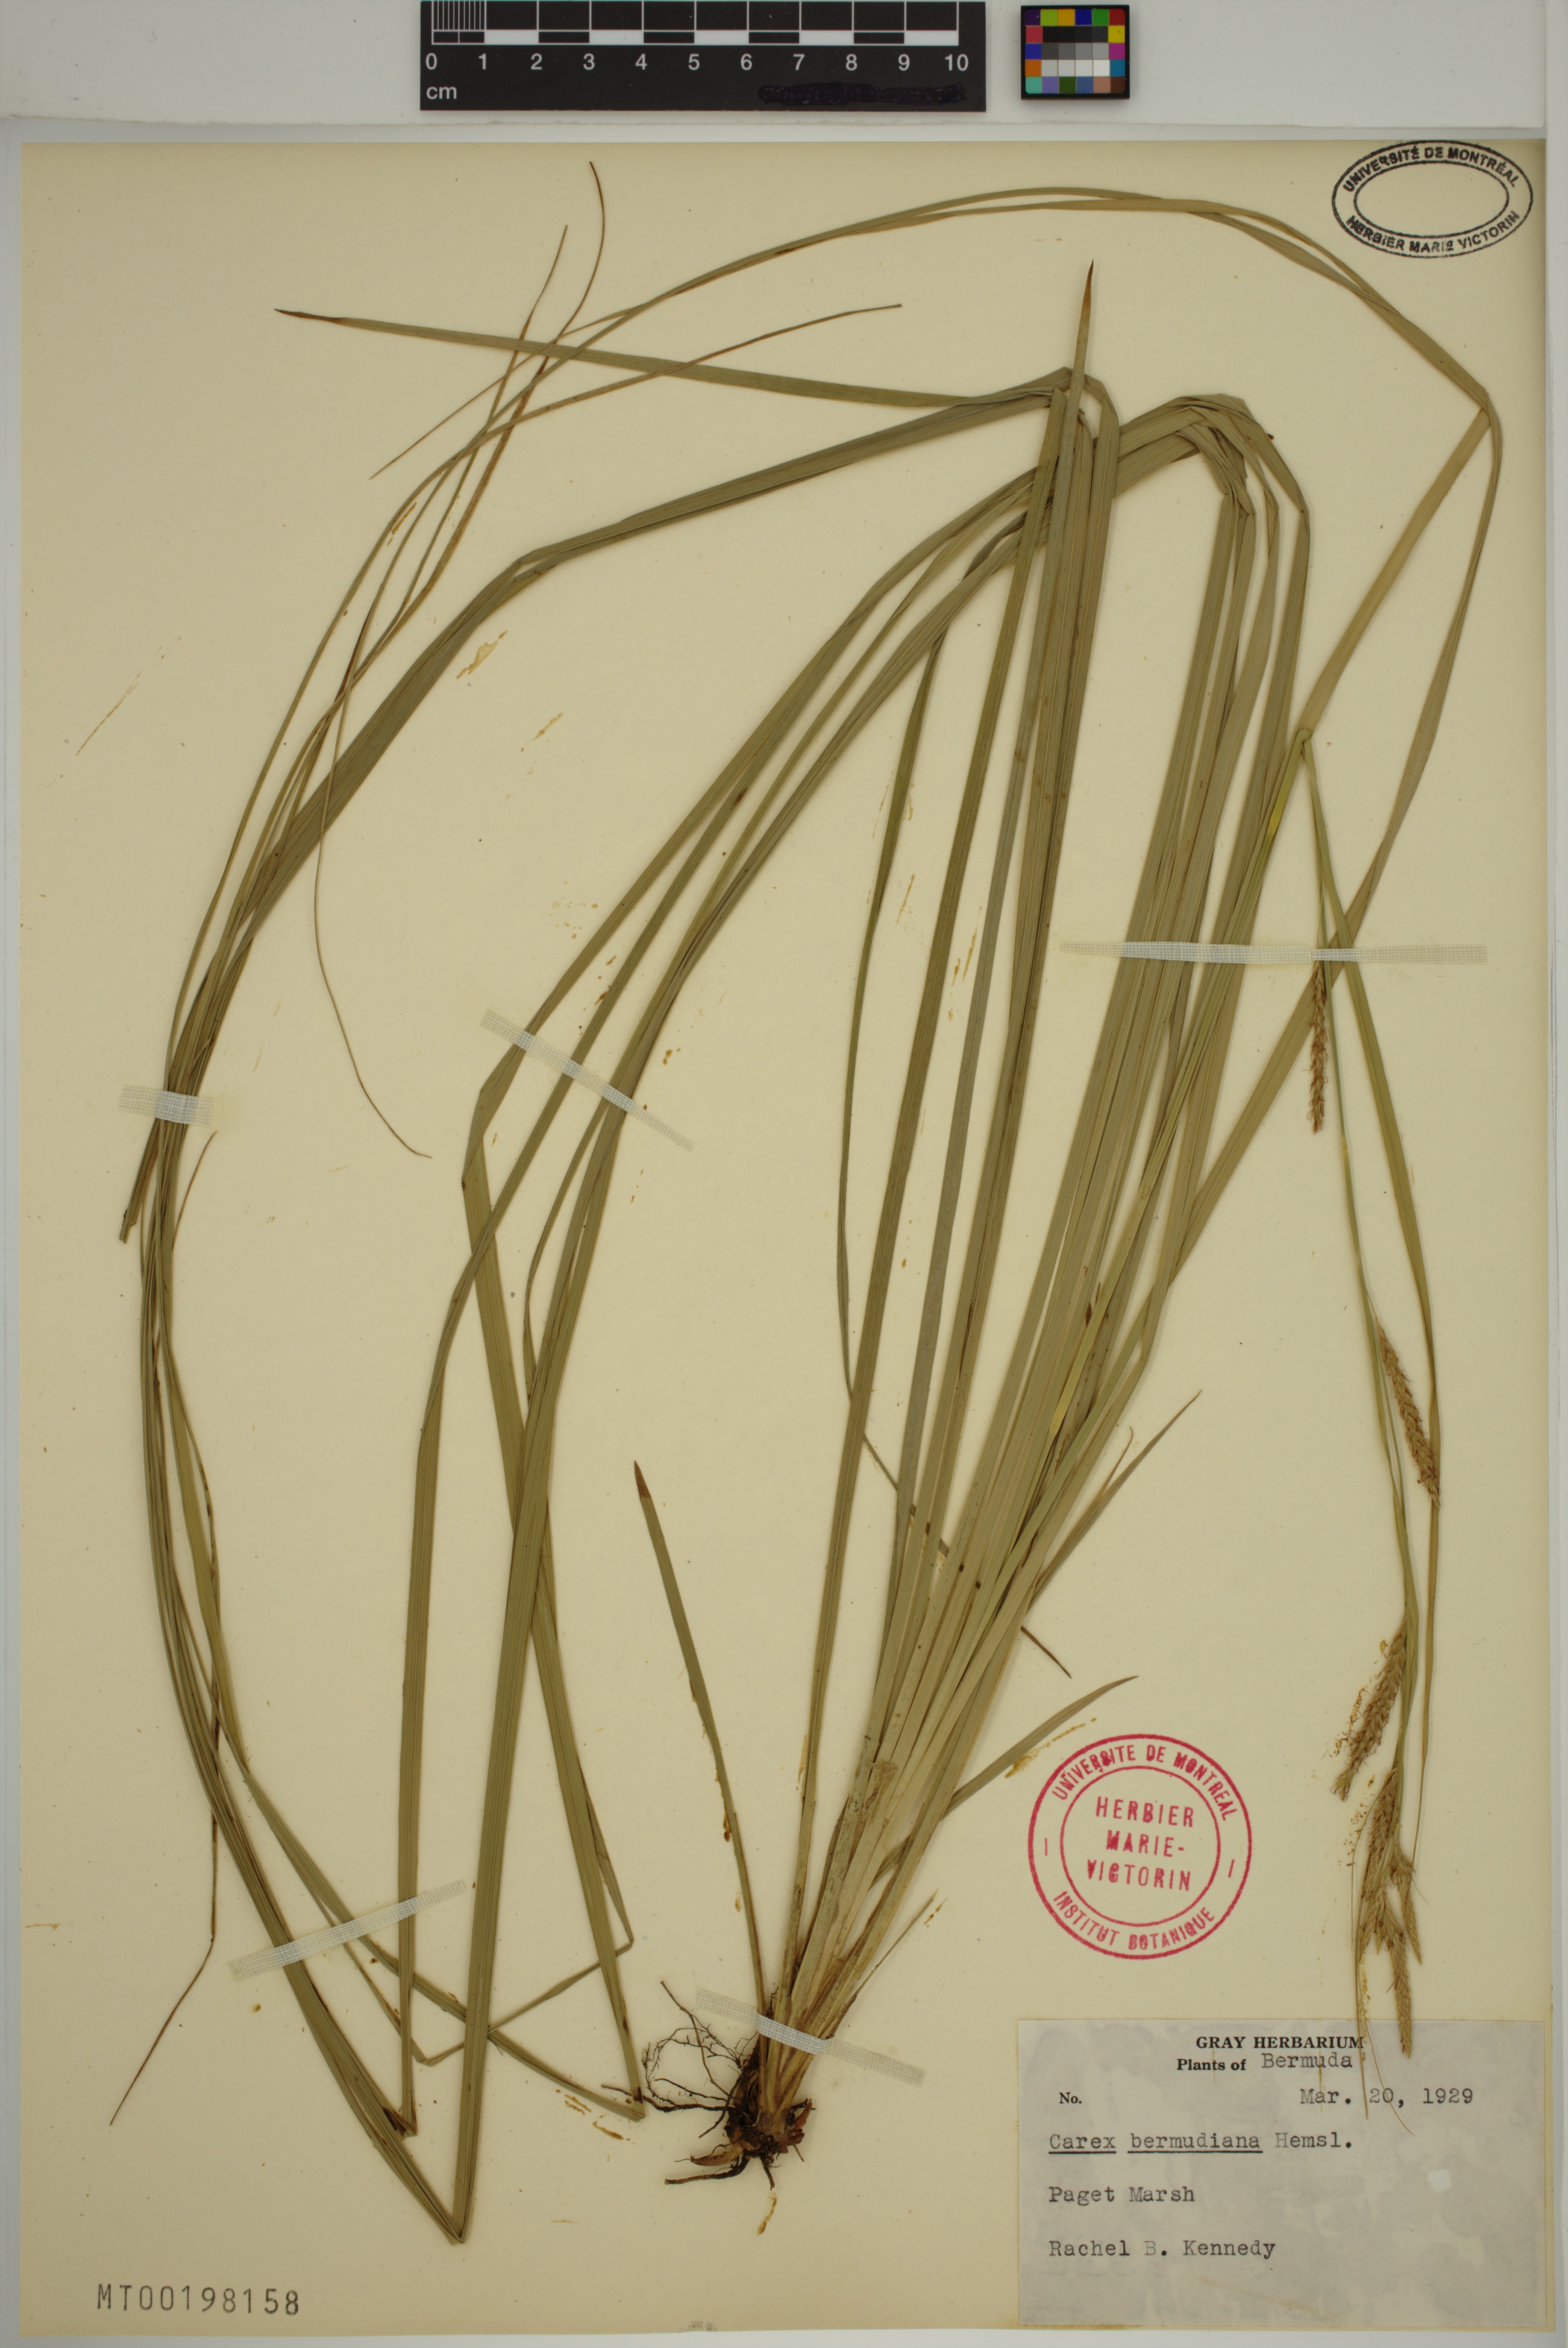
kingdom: Plantae
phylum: Tracheophyta
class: Liliopsida
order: Poales
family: Cyperaceae
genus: Carex
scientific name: Carex bermudiana
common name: Bermuda sedge
